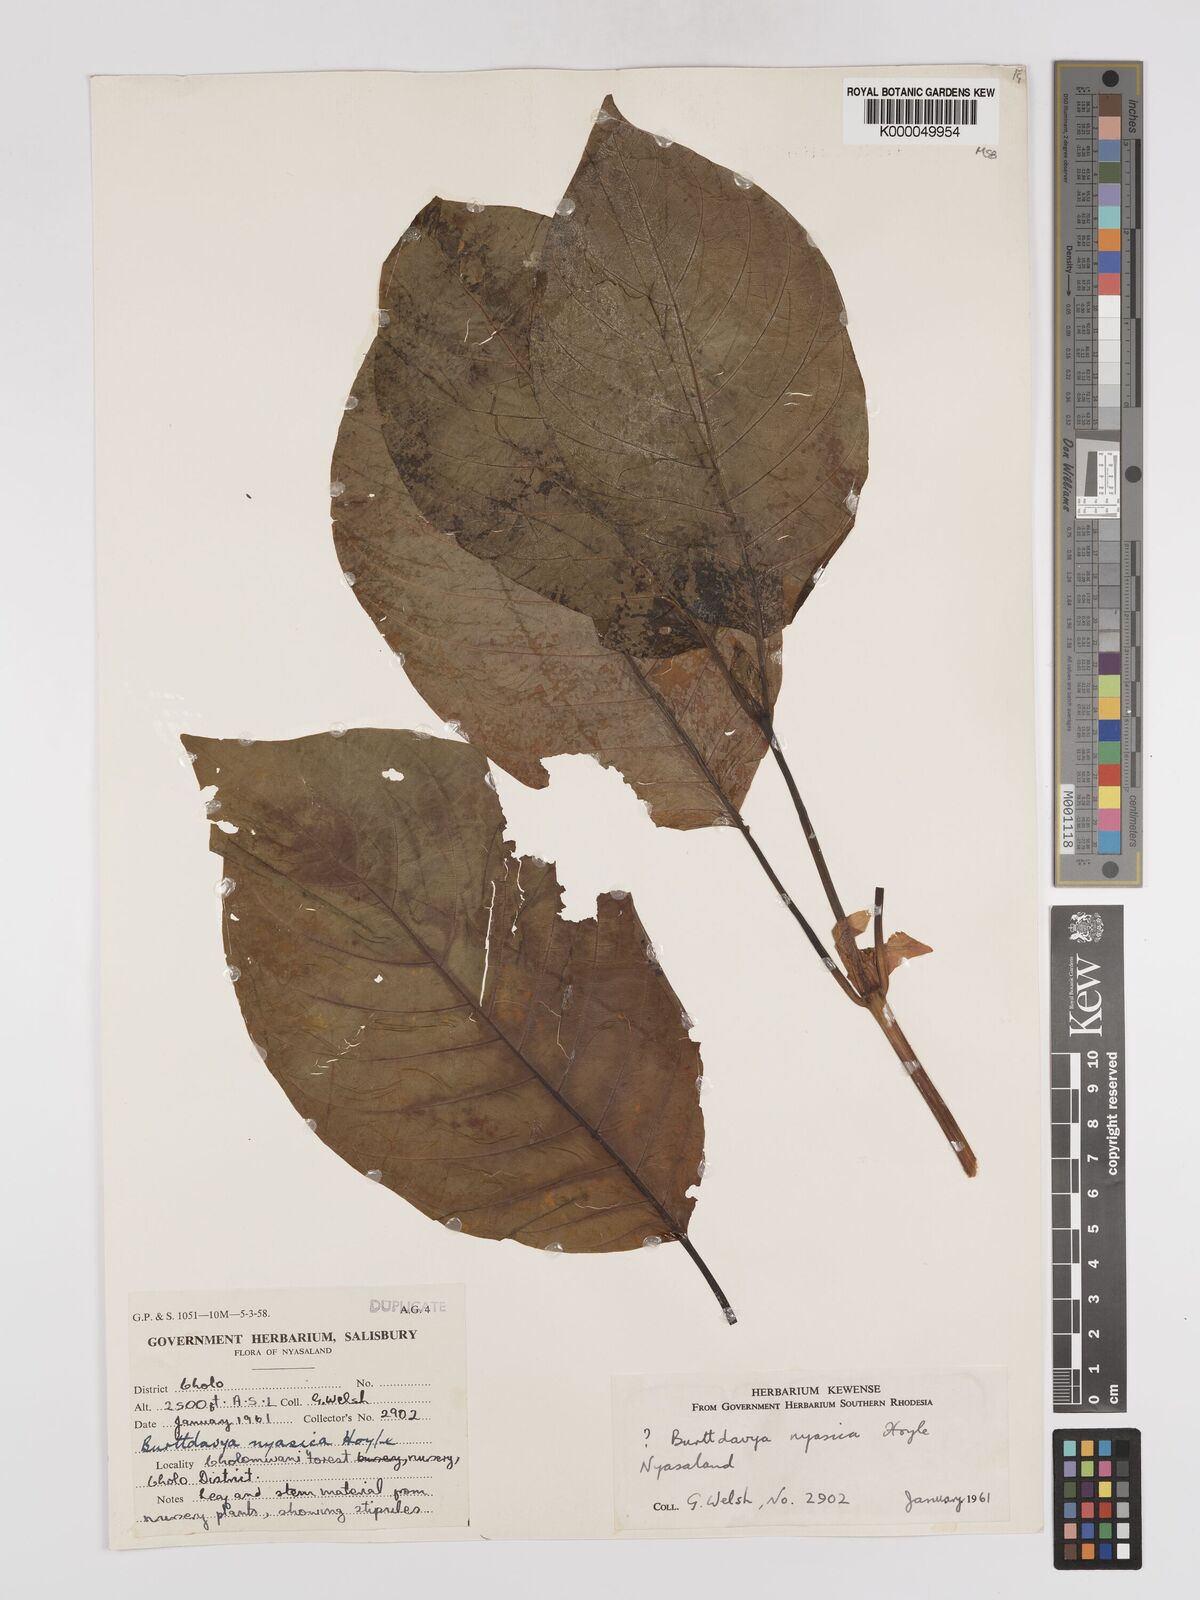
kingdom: Plantae
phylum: Tracheophyta
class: Magnoliopsida
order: Gentianales
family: Rubiaceae
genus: Nauclea
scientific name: Nauclea
